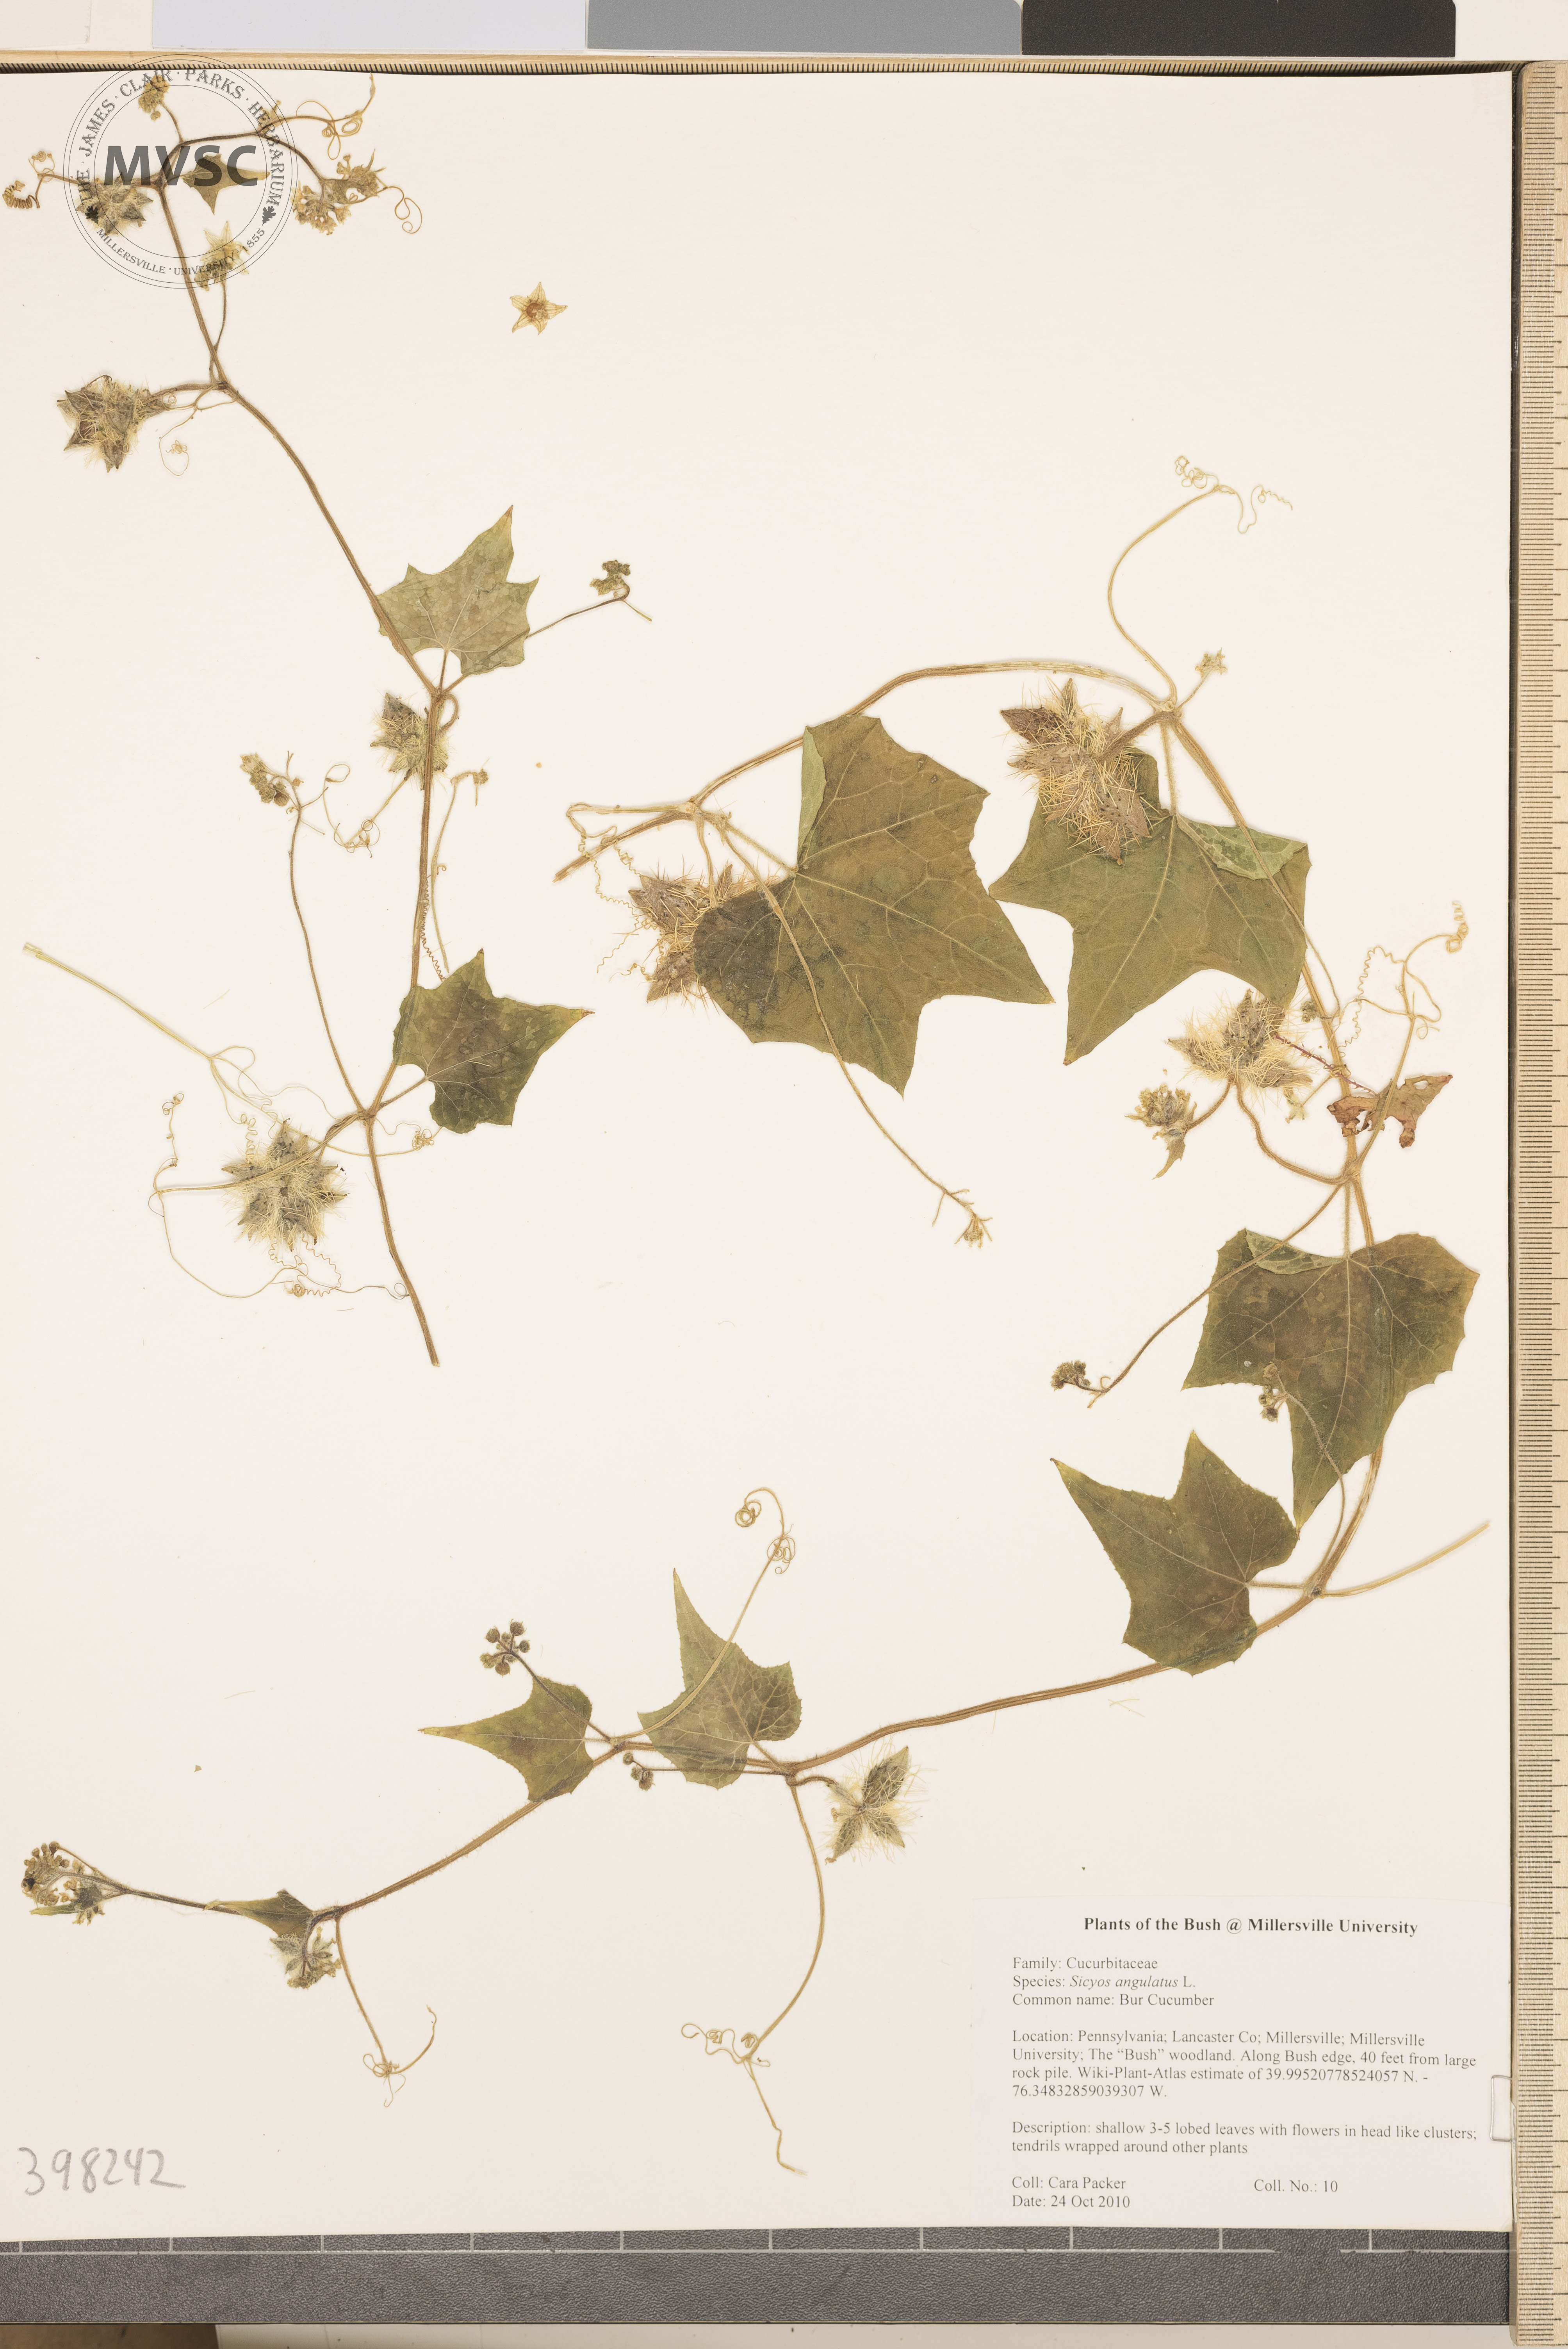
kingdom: Plantae
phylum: Tracheophyta
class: Magnoliopsida
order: Cucurbitales
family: Cucurbitaceae
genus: Sicyos
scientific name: Sicyos angulatus
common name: Bur cucumber
